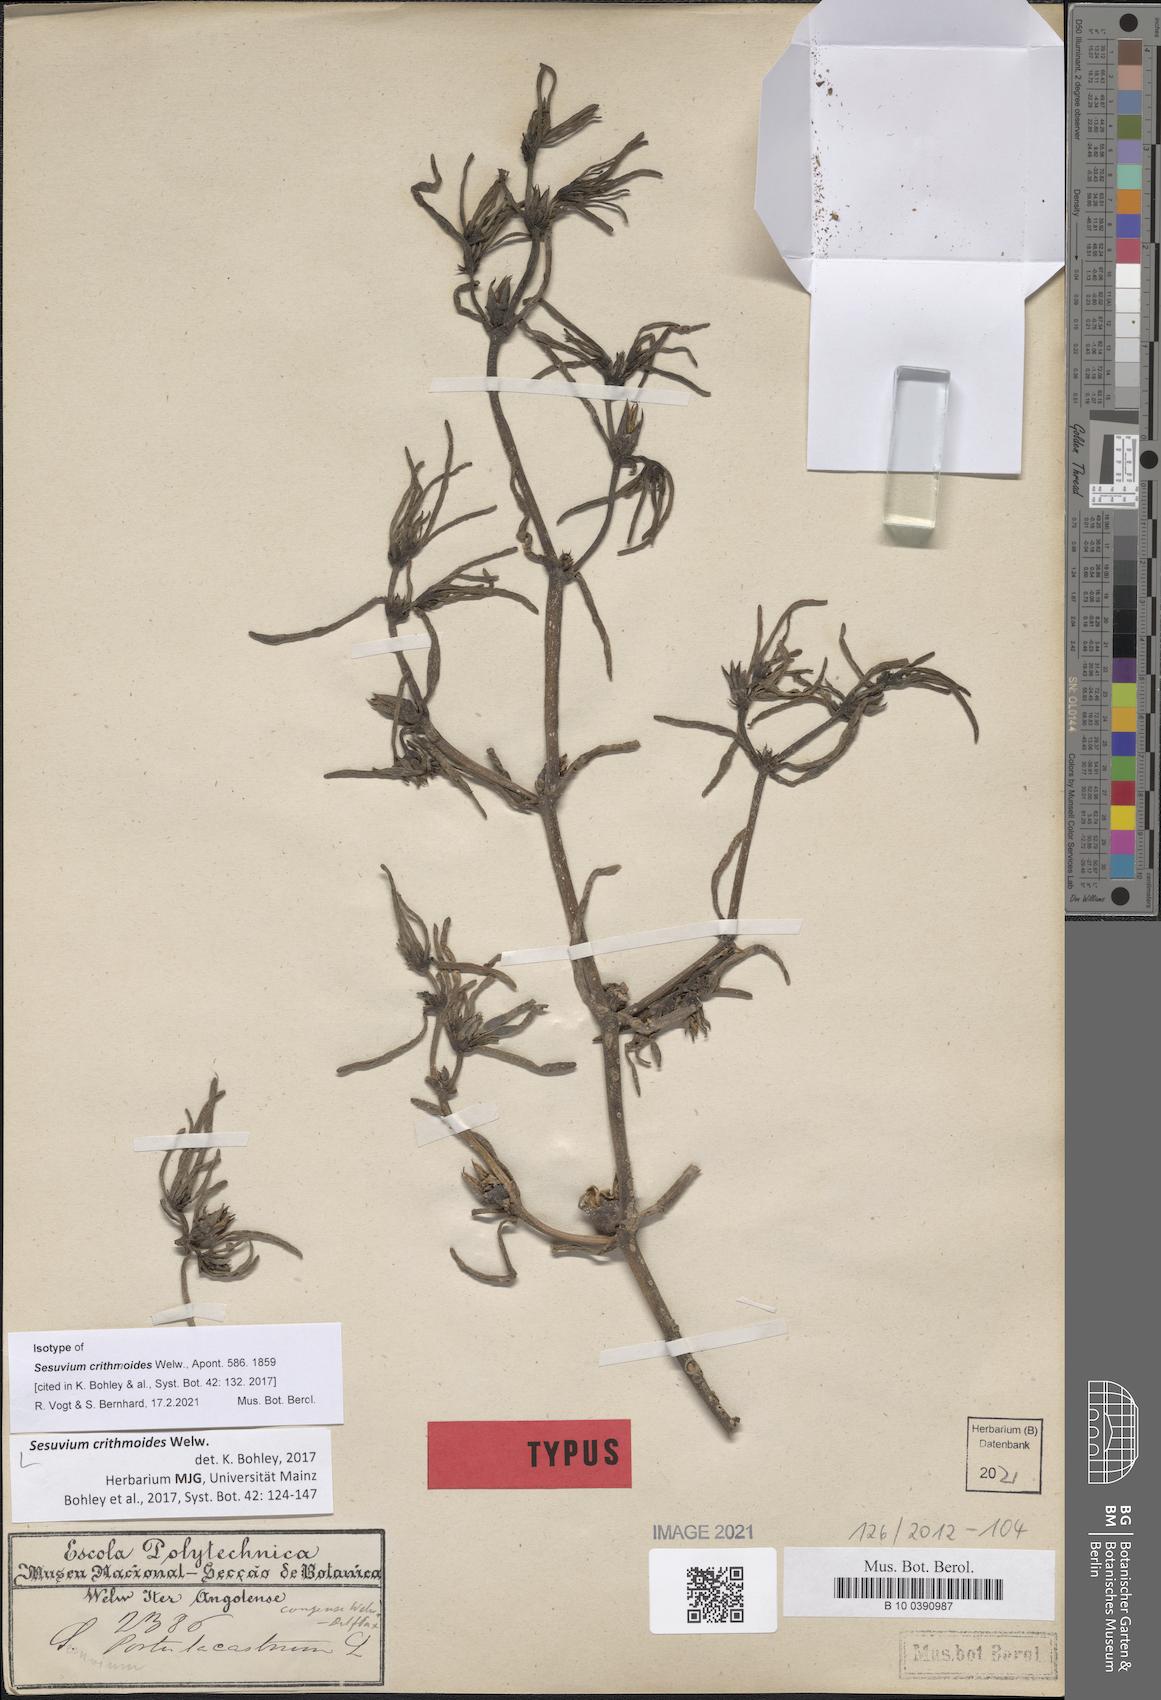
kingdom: Plantae
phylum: Tracheophyta
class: Magnoliopsida
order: Caryophyllales
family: Aizoaceae
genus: Sesuvium
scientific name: Sesuvium crithmoides
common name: Tropical seapurslane
